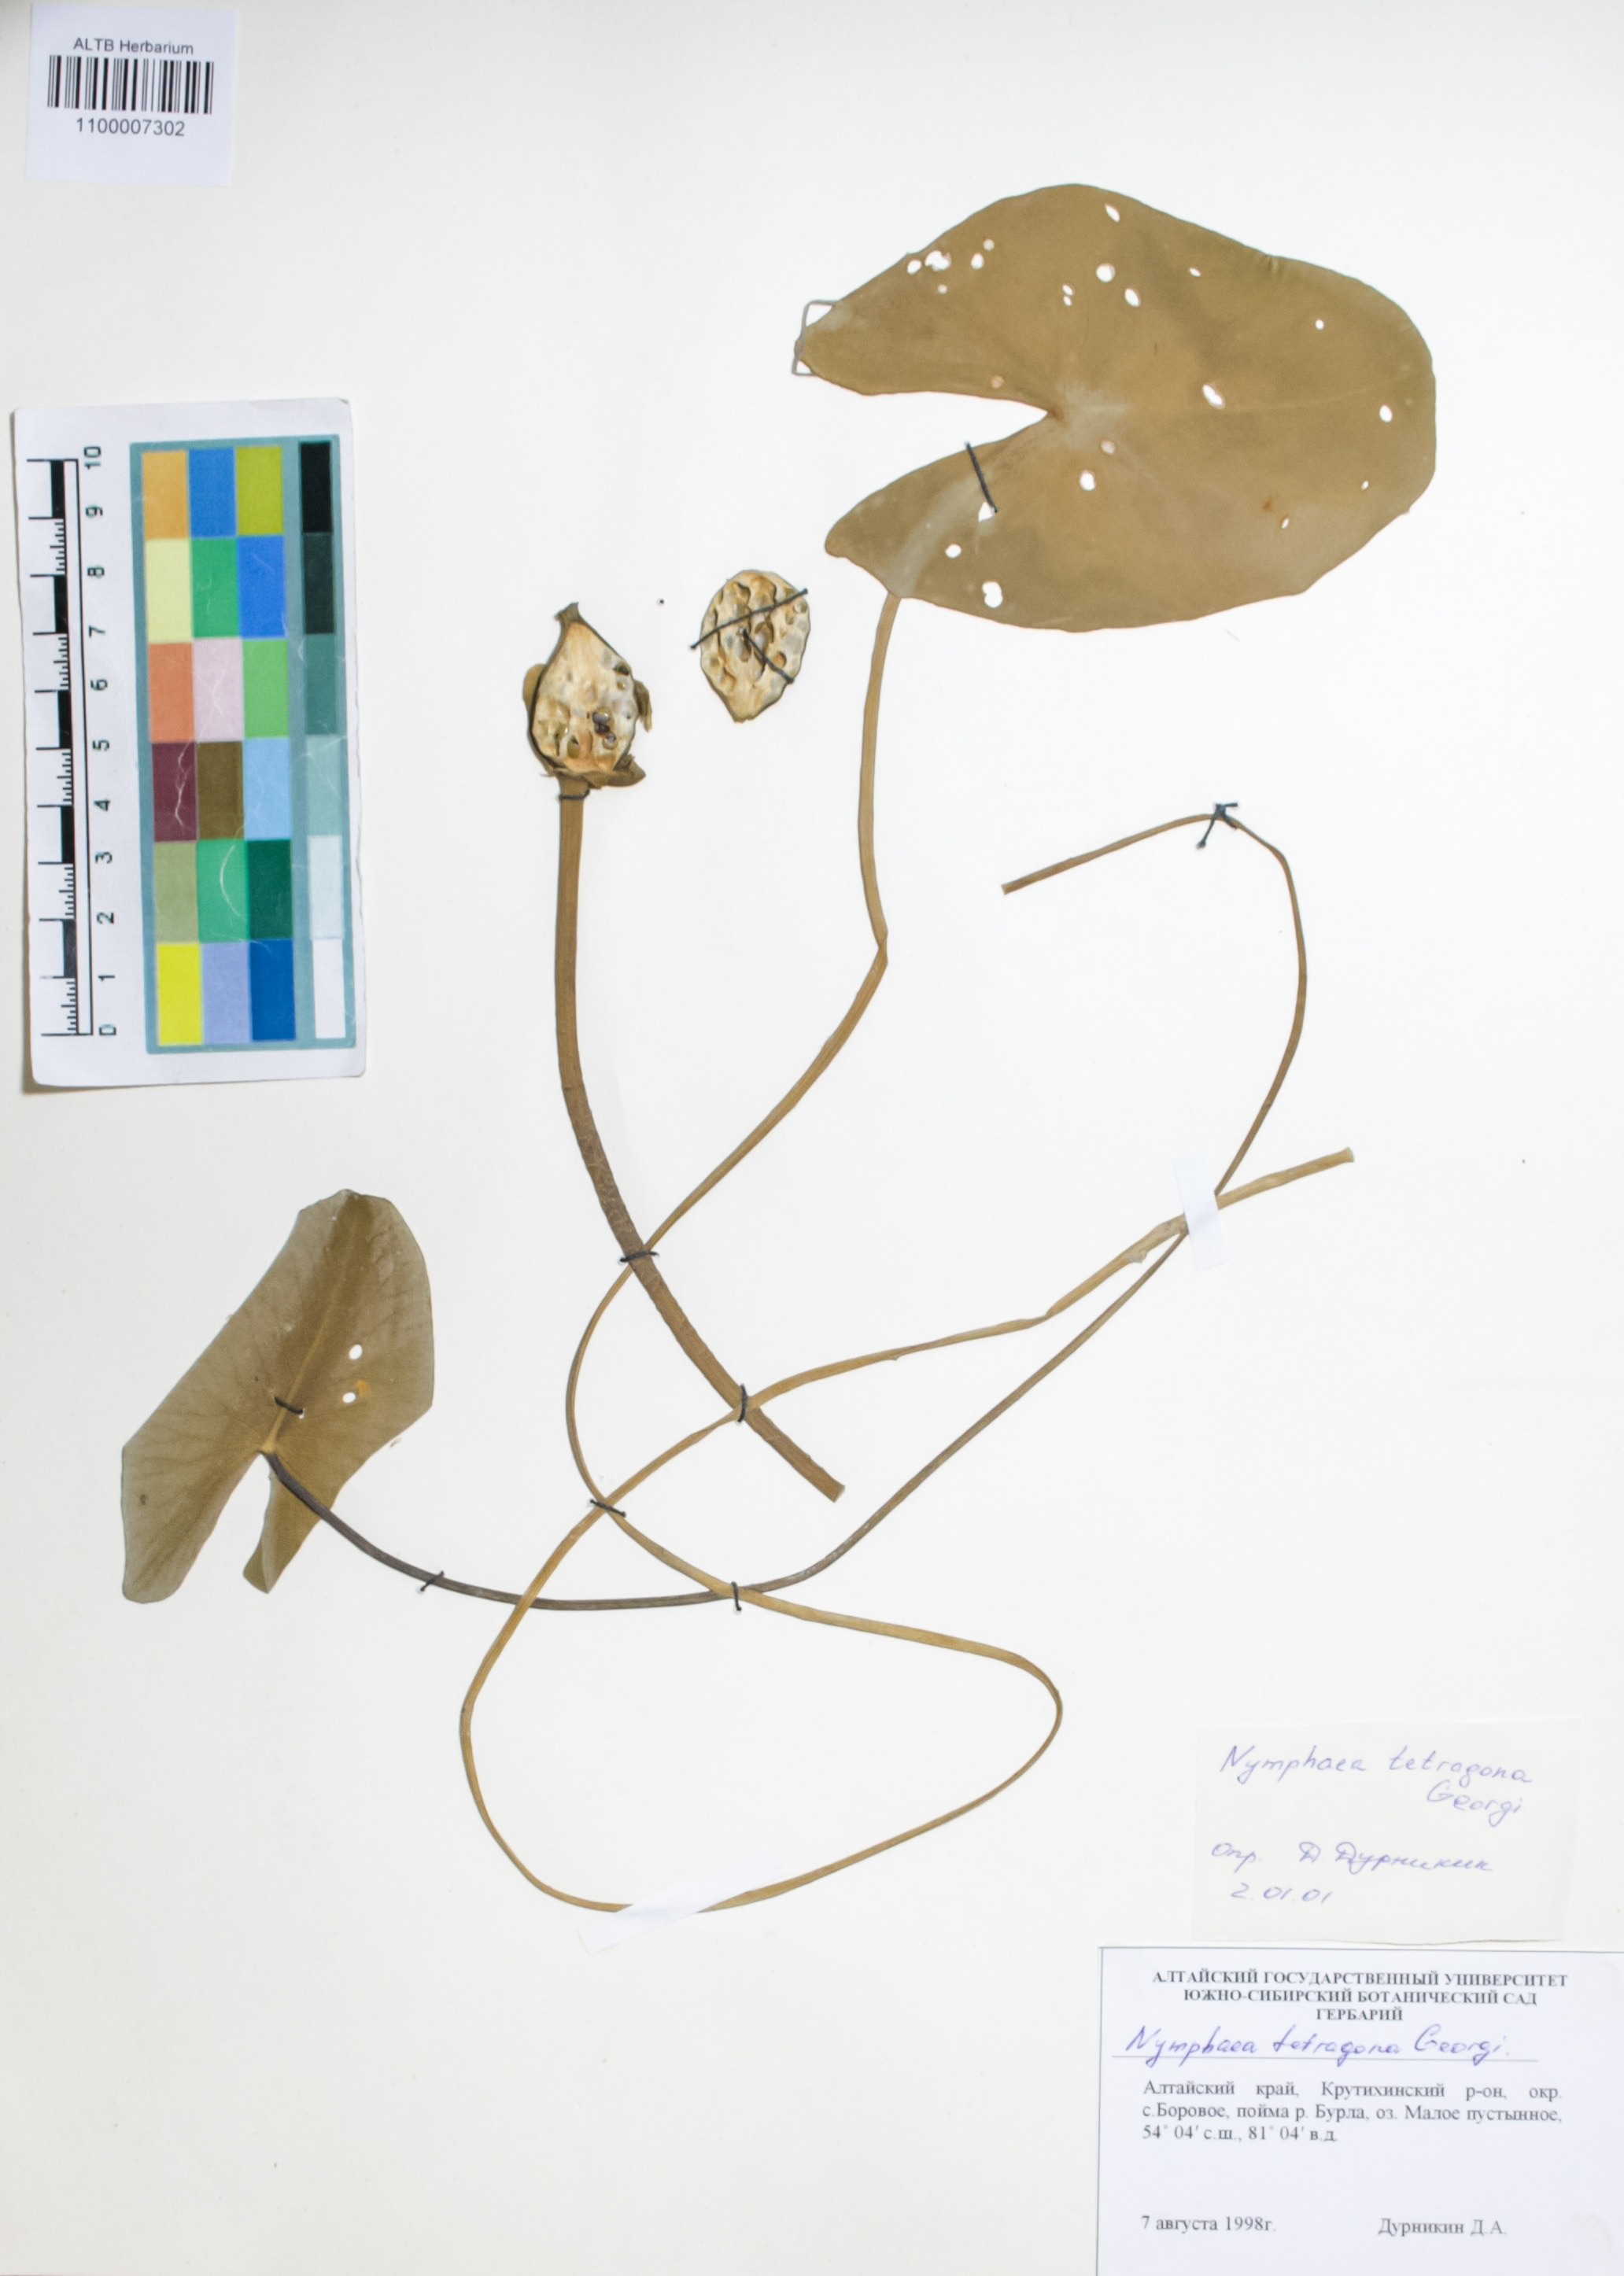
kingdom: Plantae
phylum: Tracheophyta
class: Magnoliopsida
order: Nymphaeales
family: Nymphaeaceae
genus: Nymphaea
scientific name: Nymphaea tetragona
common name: Pygmy water-lily
